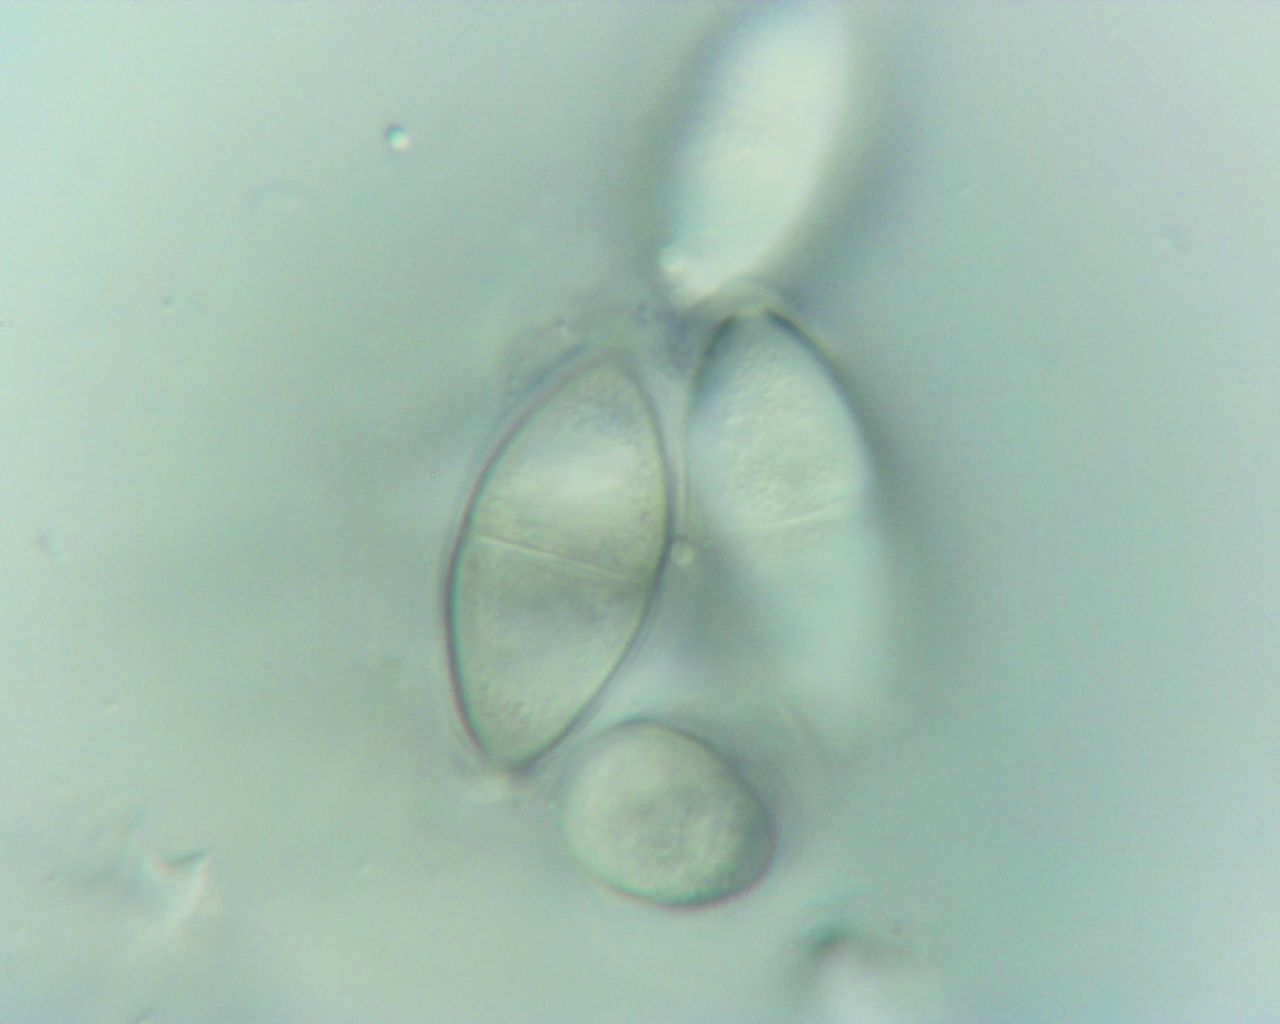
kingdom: Fungi
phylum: Ascomycota
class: Dothideomycetes
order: Pleosporales
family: Didymosphaeriaceae
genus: Montagnula
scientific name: Montagnula perforans
